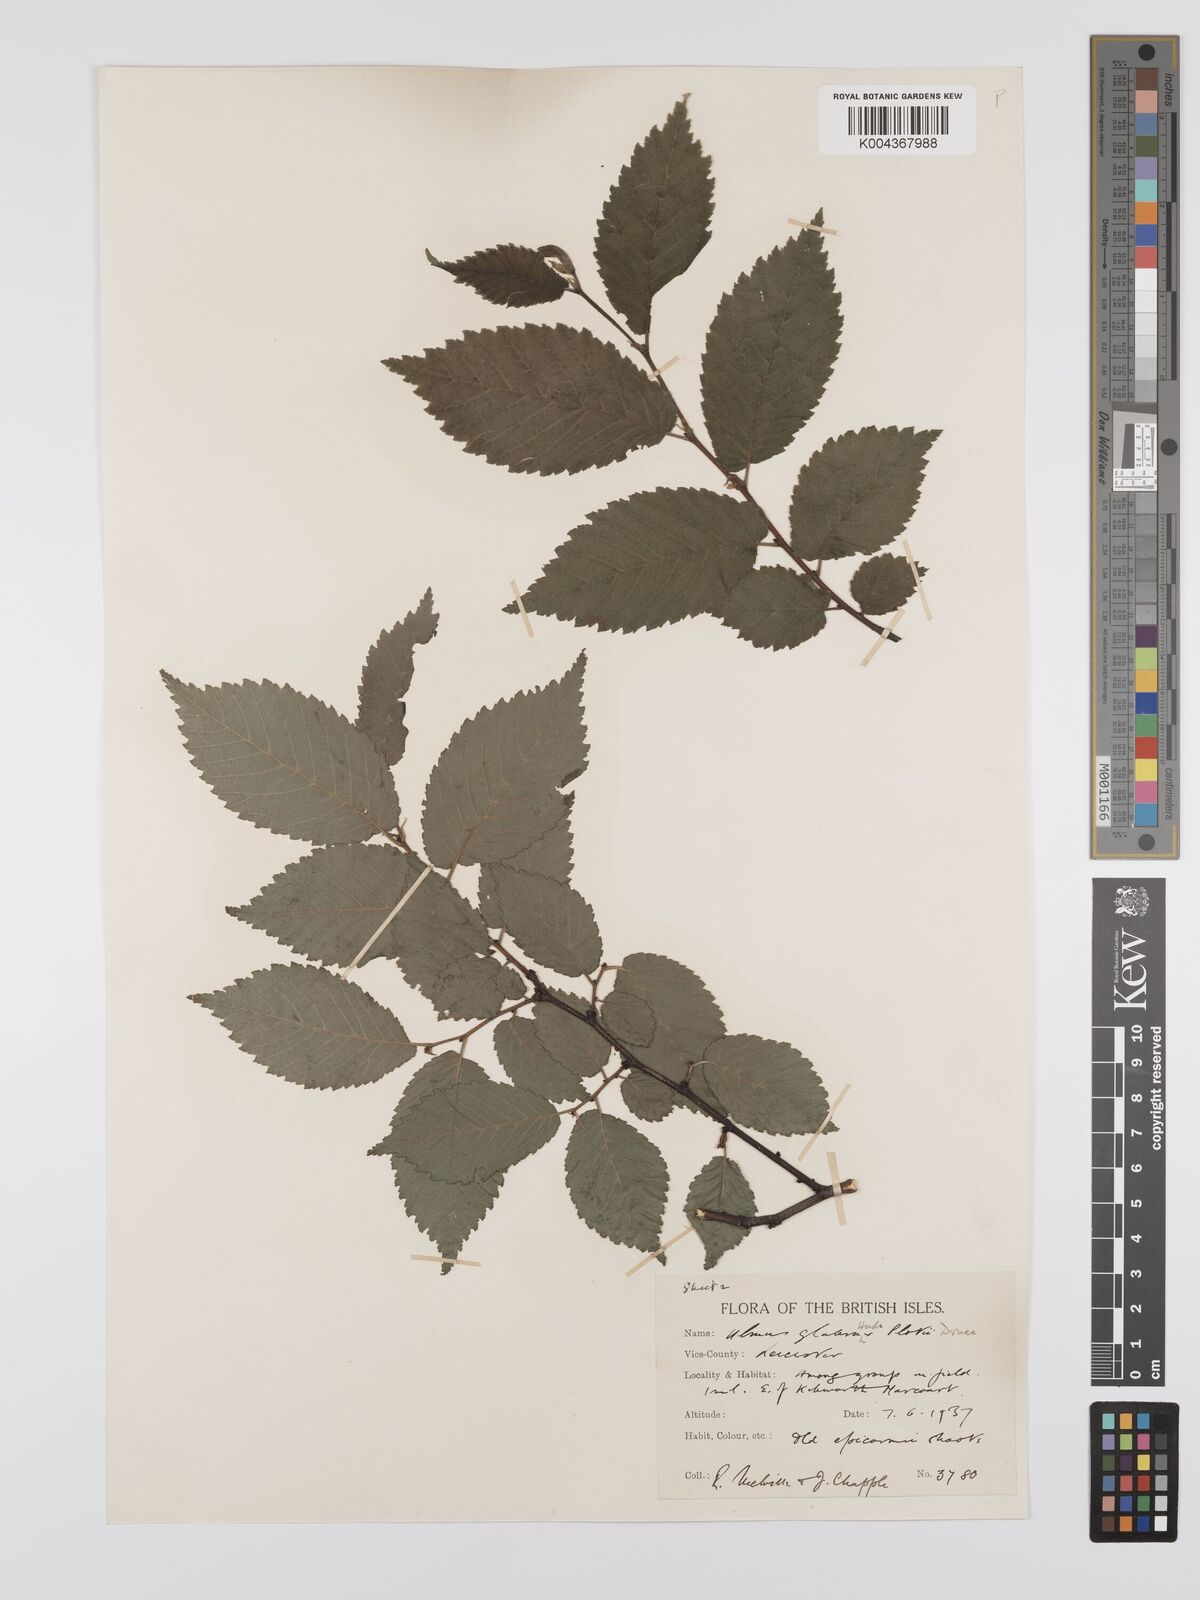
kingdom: Plantae
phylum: Tracheophyta
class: Magnoliopsida
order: Rosales
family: Ulmaceae
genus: Ulmus
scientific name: Ulmus
